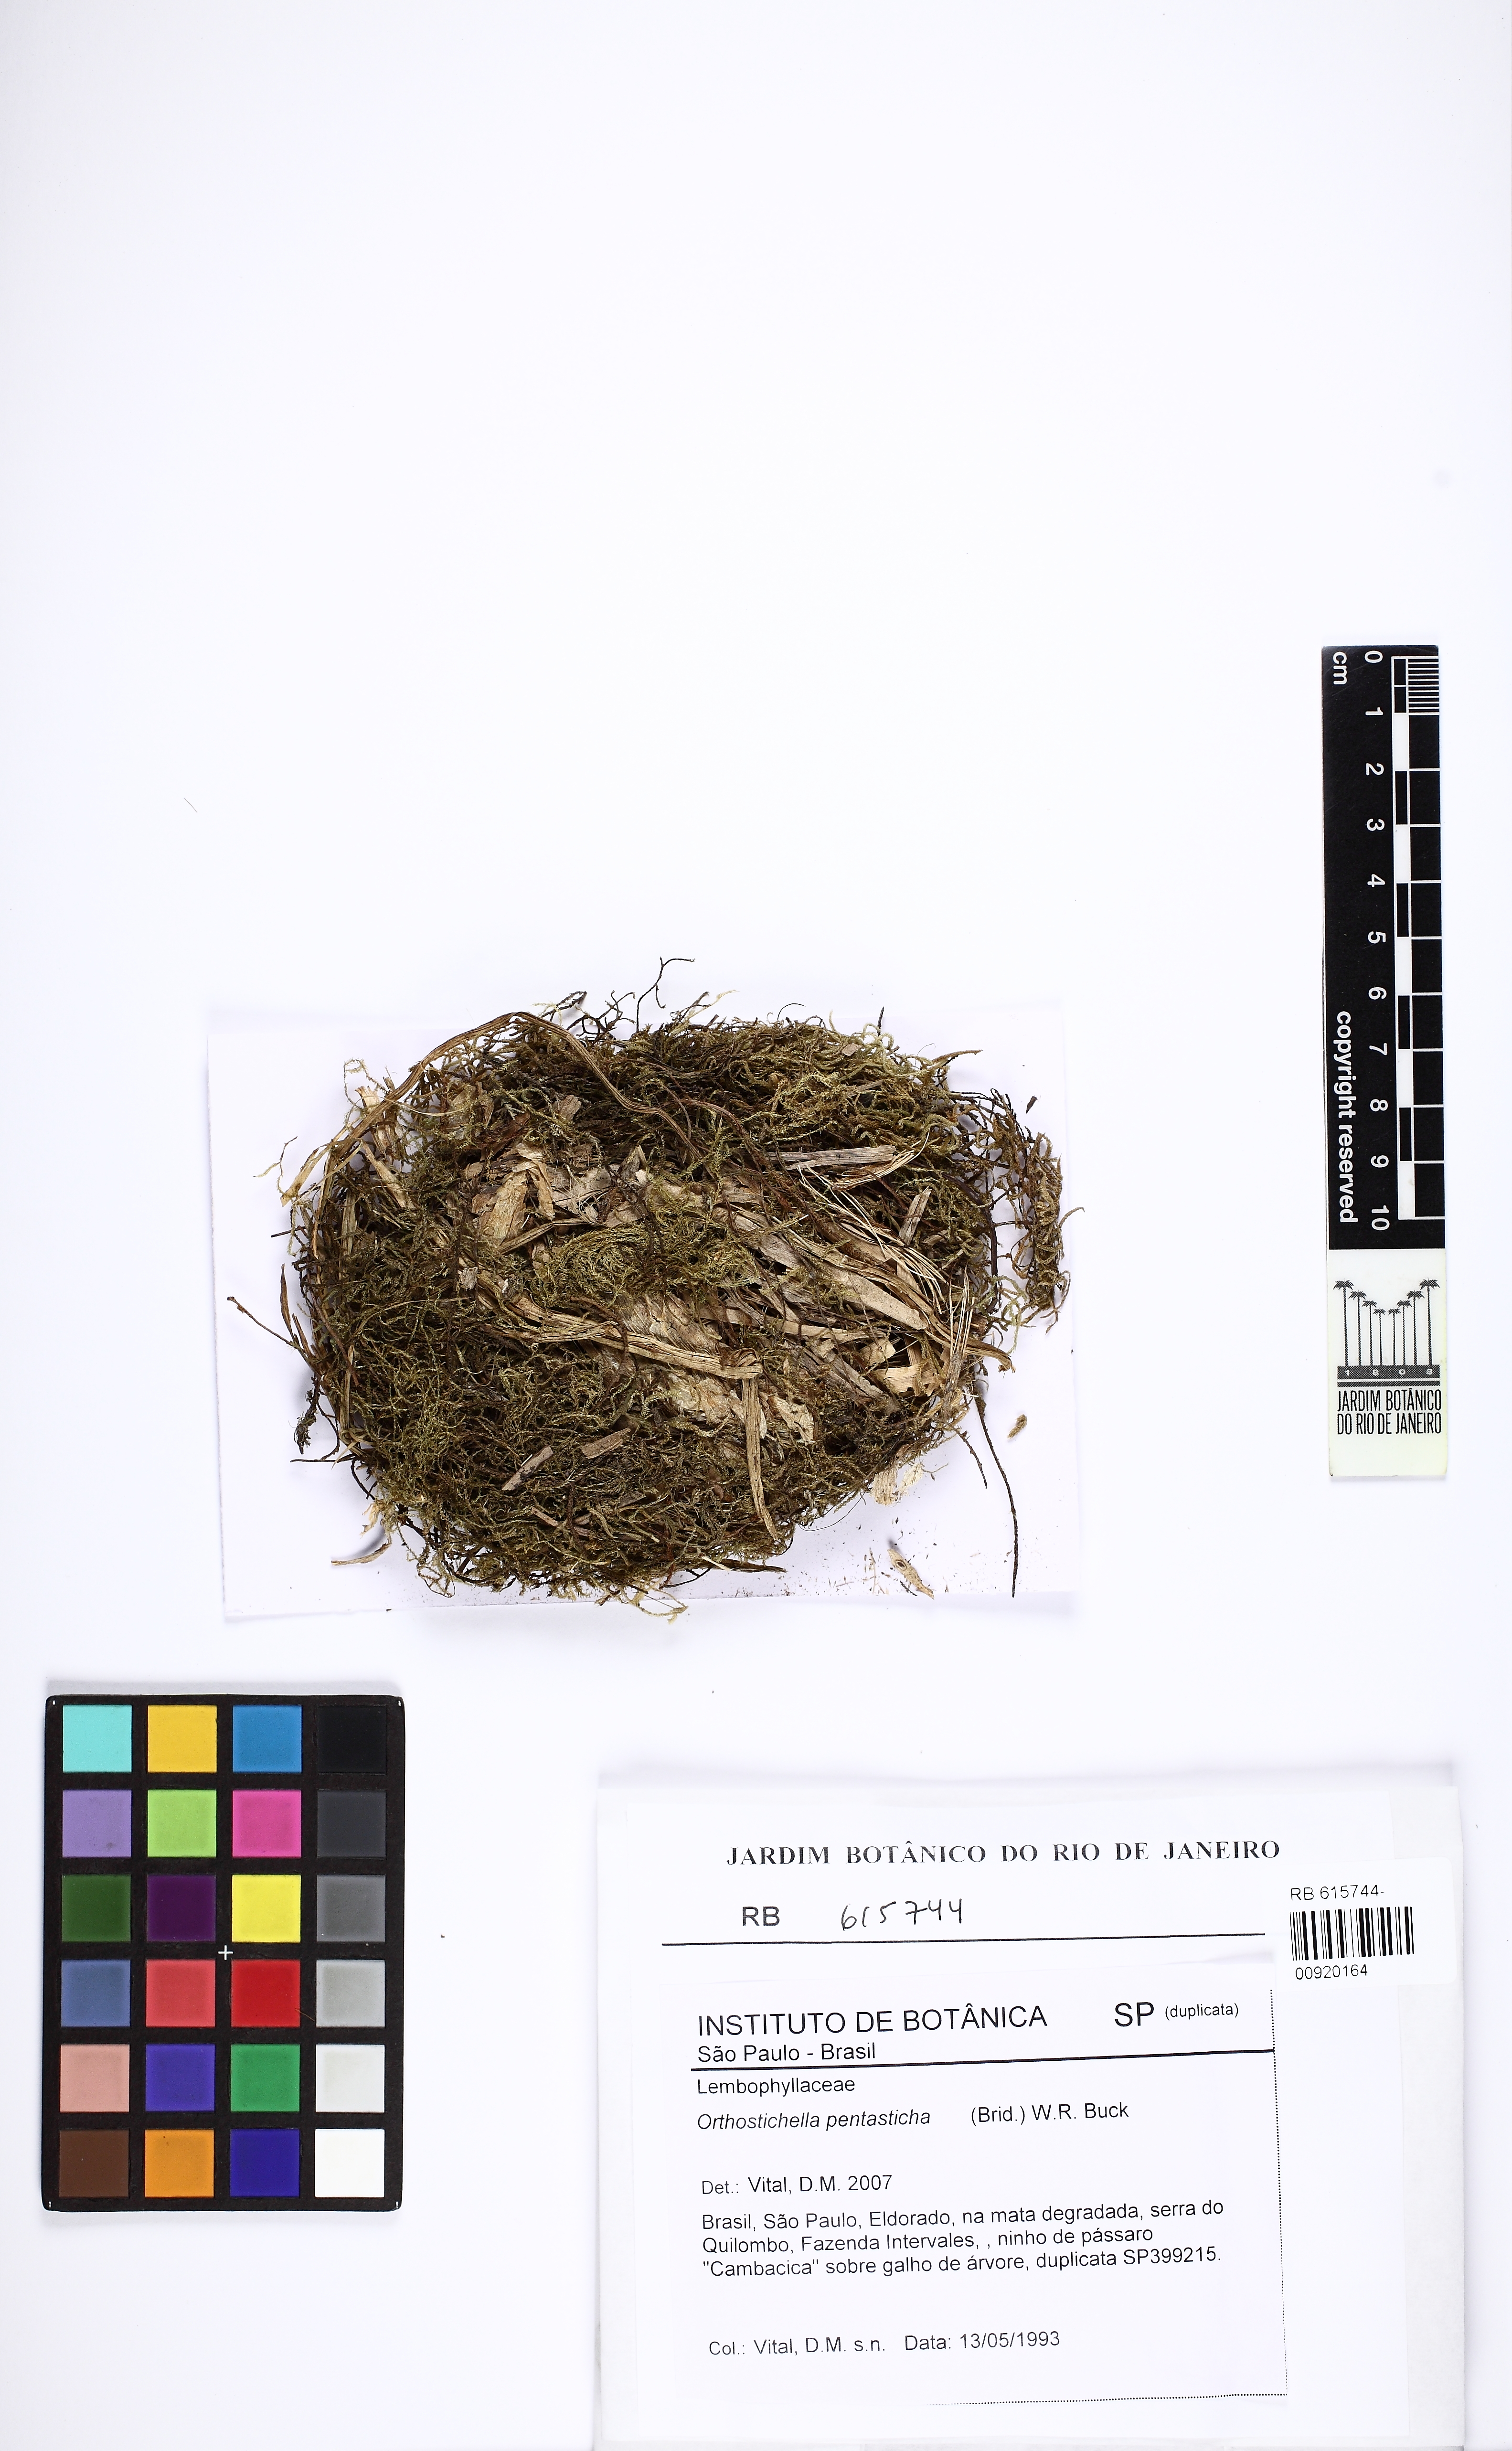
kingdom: Plantae
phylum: Bryophyta
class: Bryopsida
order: Hypnales
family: Pterobryaceae
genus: Orthostichidium
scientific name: Orthostichidium pentastichum
